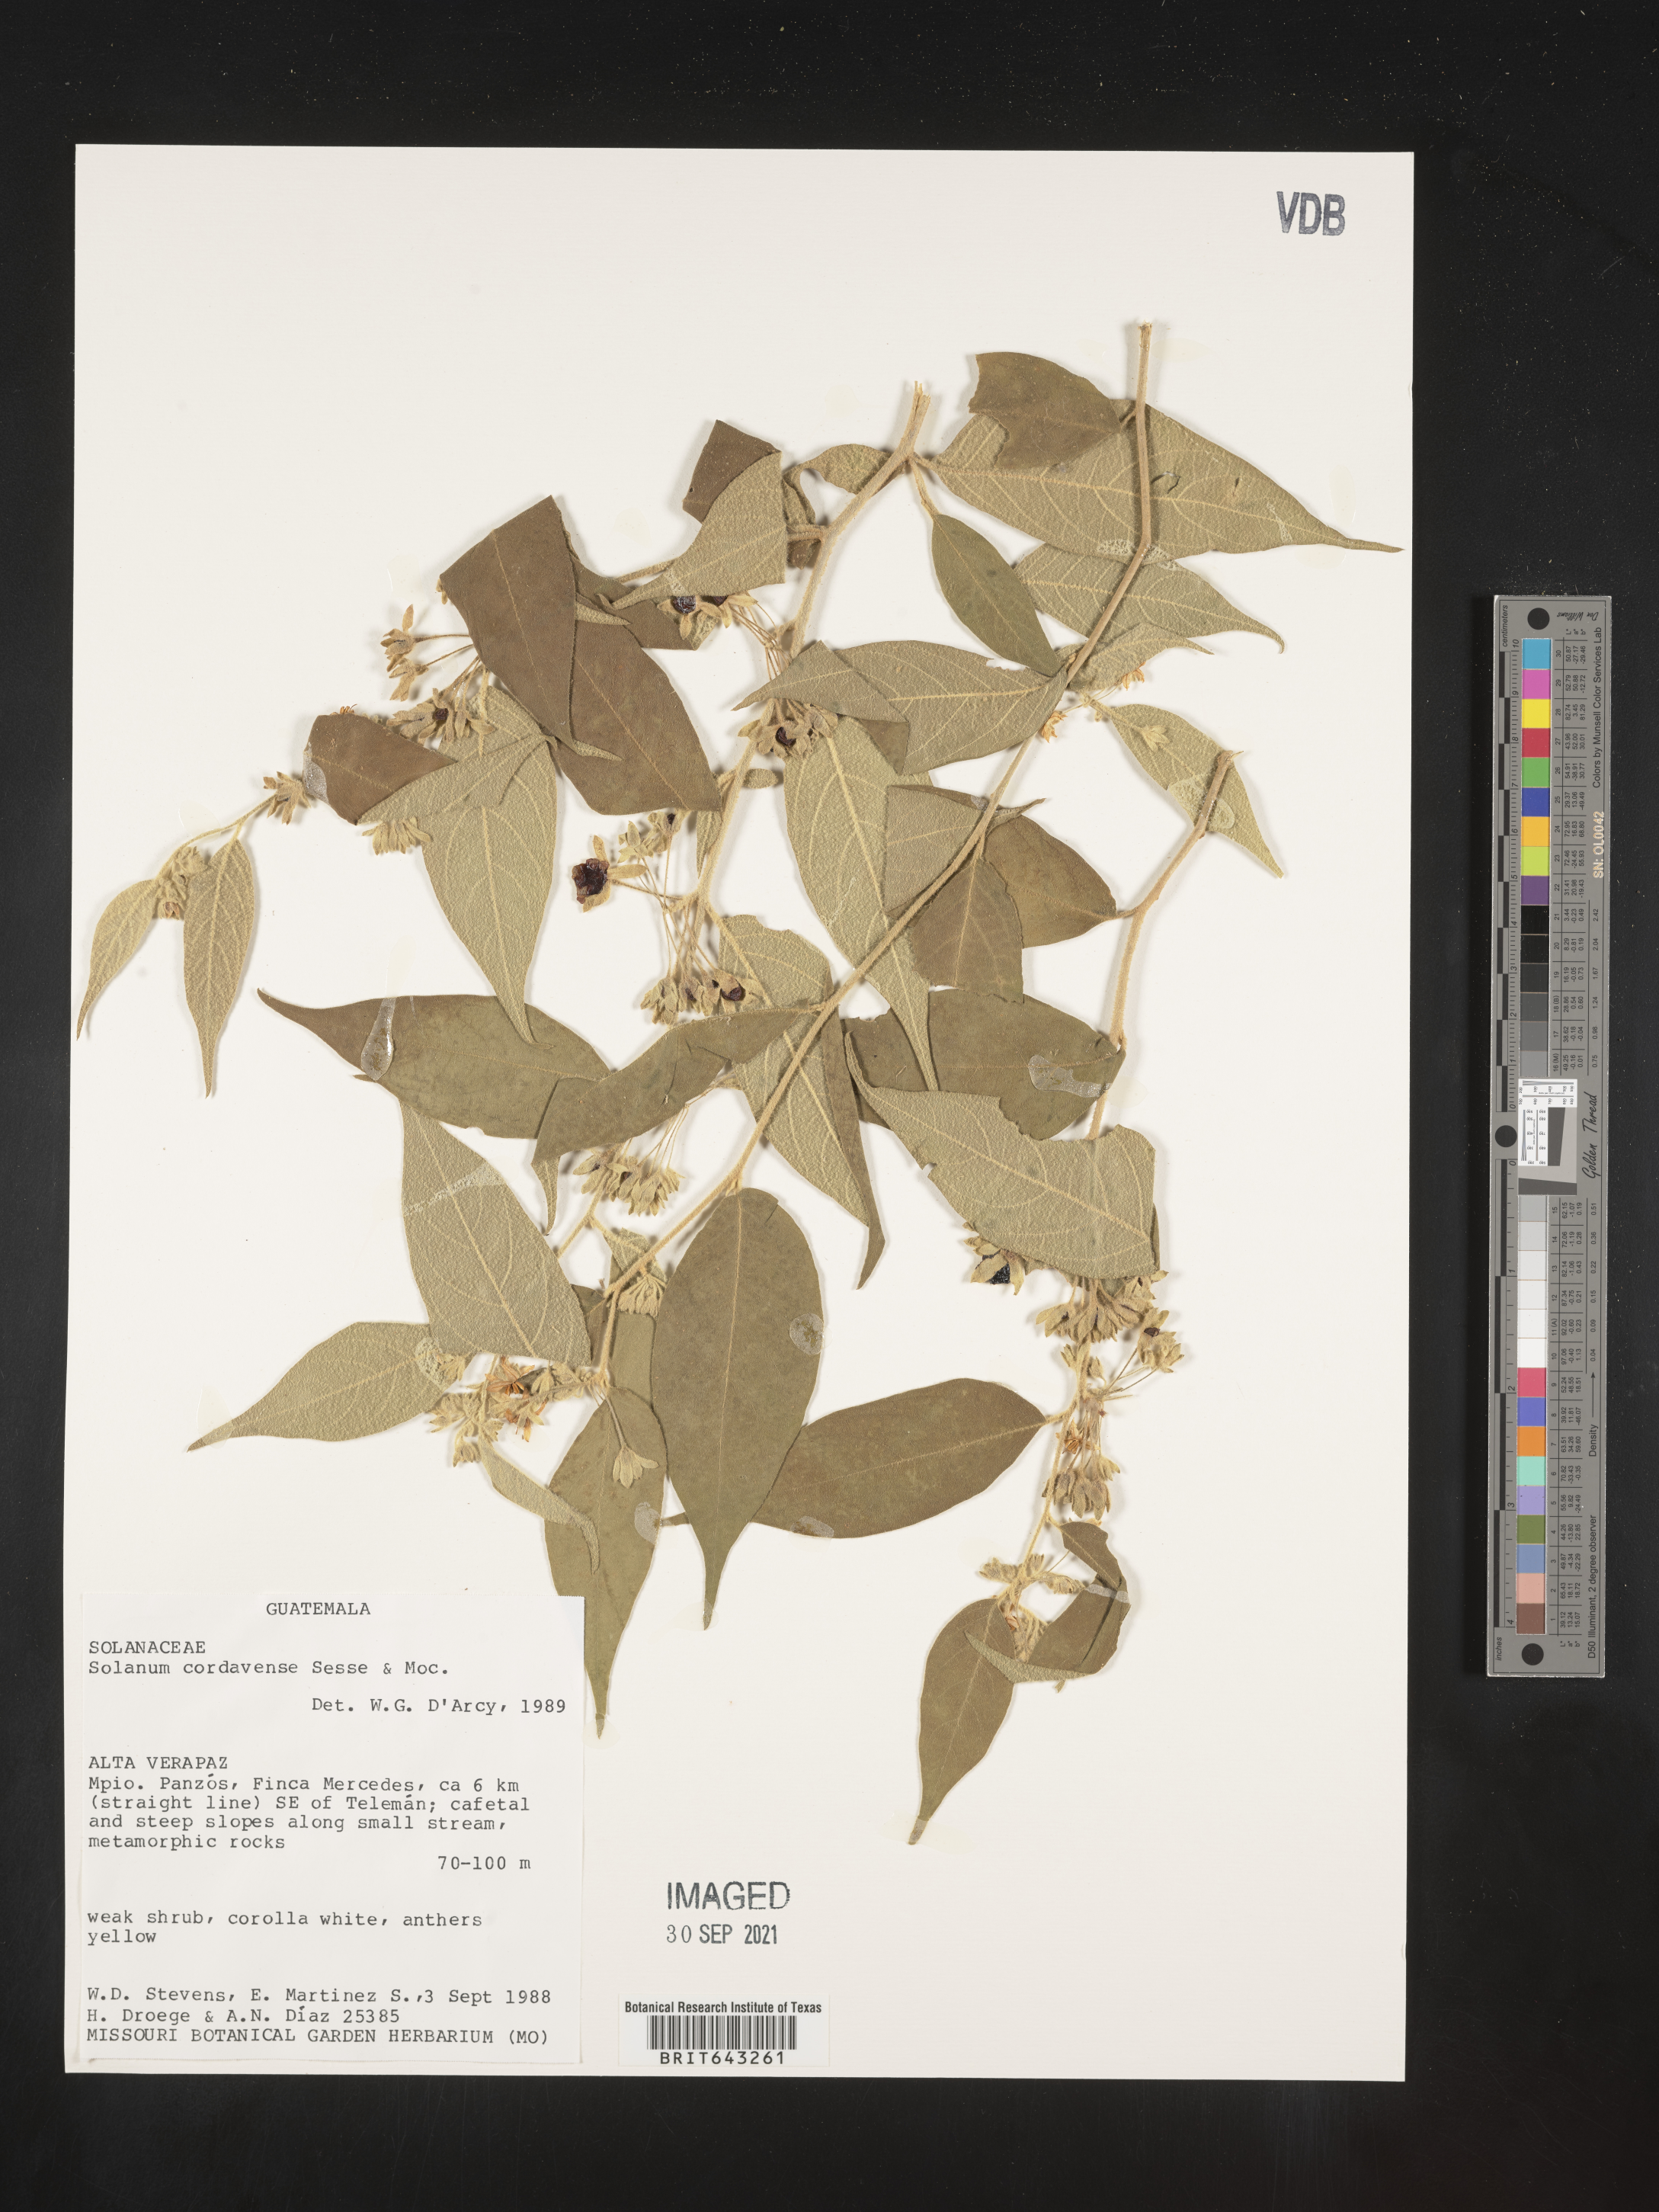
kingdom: Plantae
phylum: Tracheophyta
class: Magnoliopsida
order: Solanales
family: Solanaceae
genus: Solanum
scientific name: Solanum
